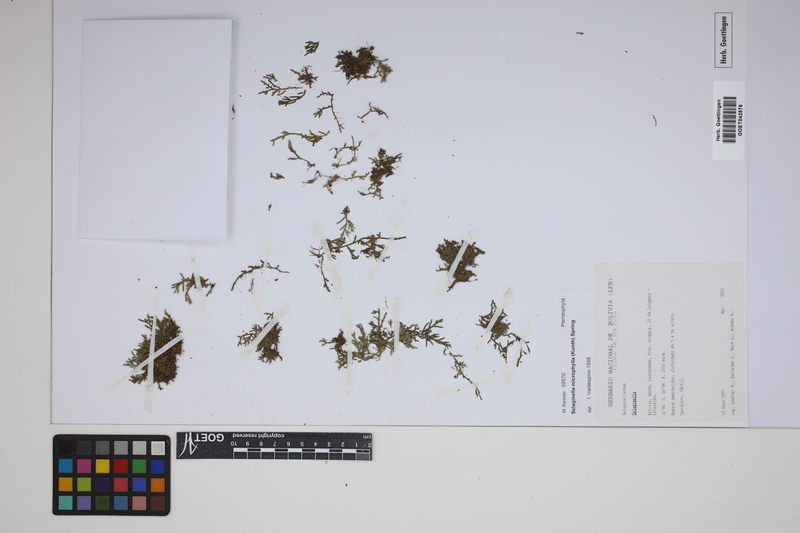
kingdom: Plantae
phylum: Tracheophyta
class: Lycopodiopsida
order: Selaginellales
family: Selaginellaceae
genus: Selaginella
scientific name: Selaginella microphylla
